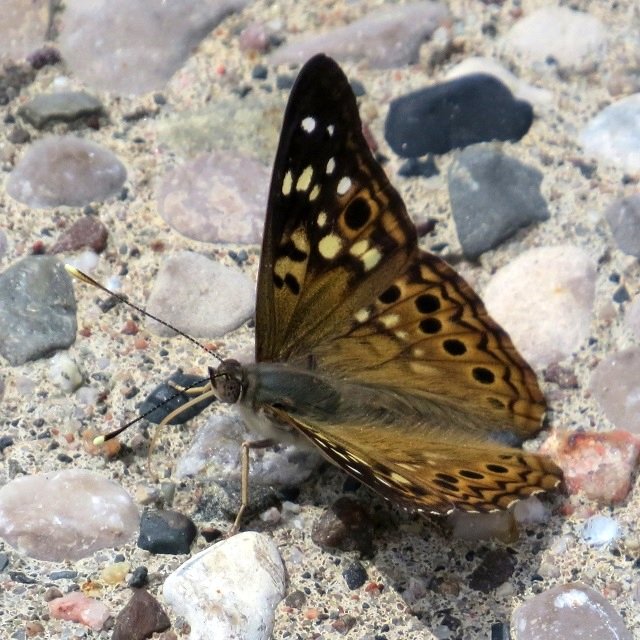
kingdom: Animalia
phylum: Arthropoda
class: Insecta
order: Lepidoptera
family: Nymphalidae
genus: Asterocampa
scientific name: Asterocampa celtis
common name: Hackberry Emperor
